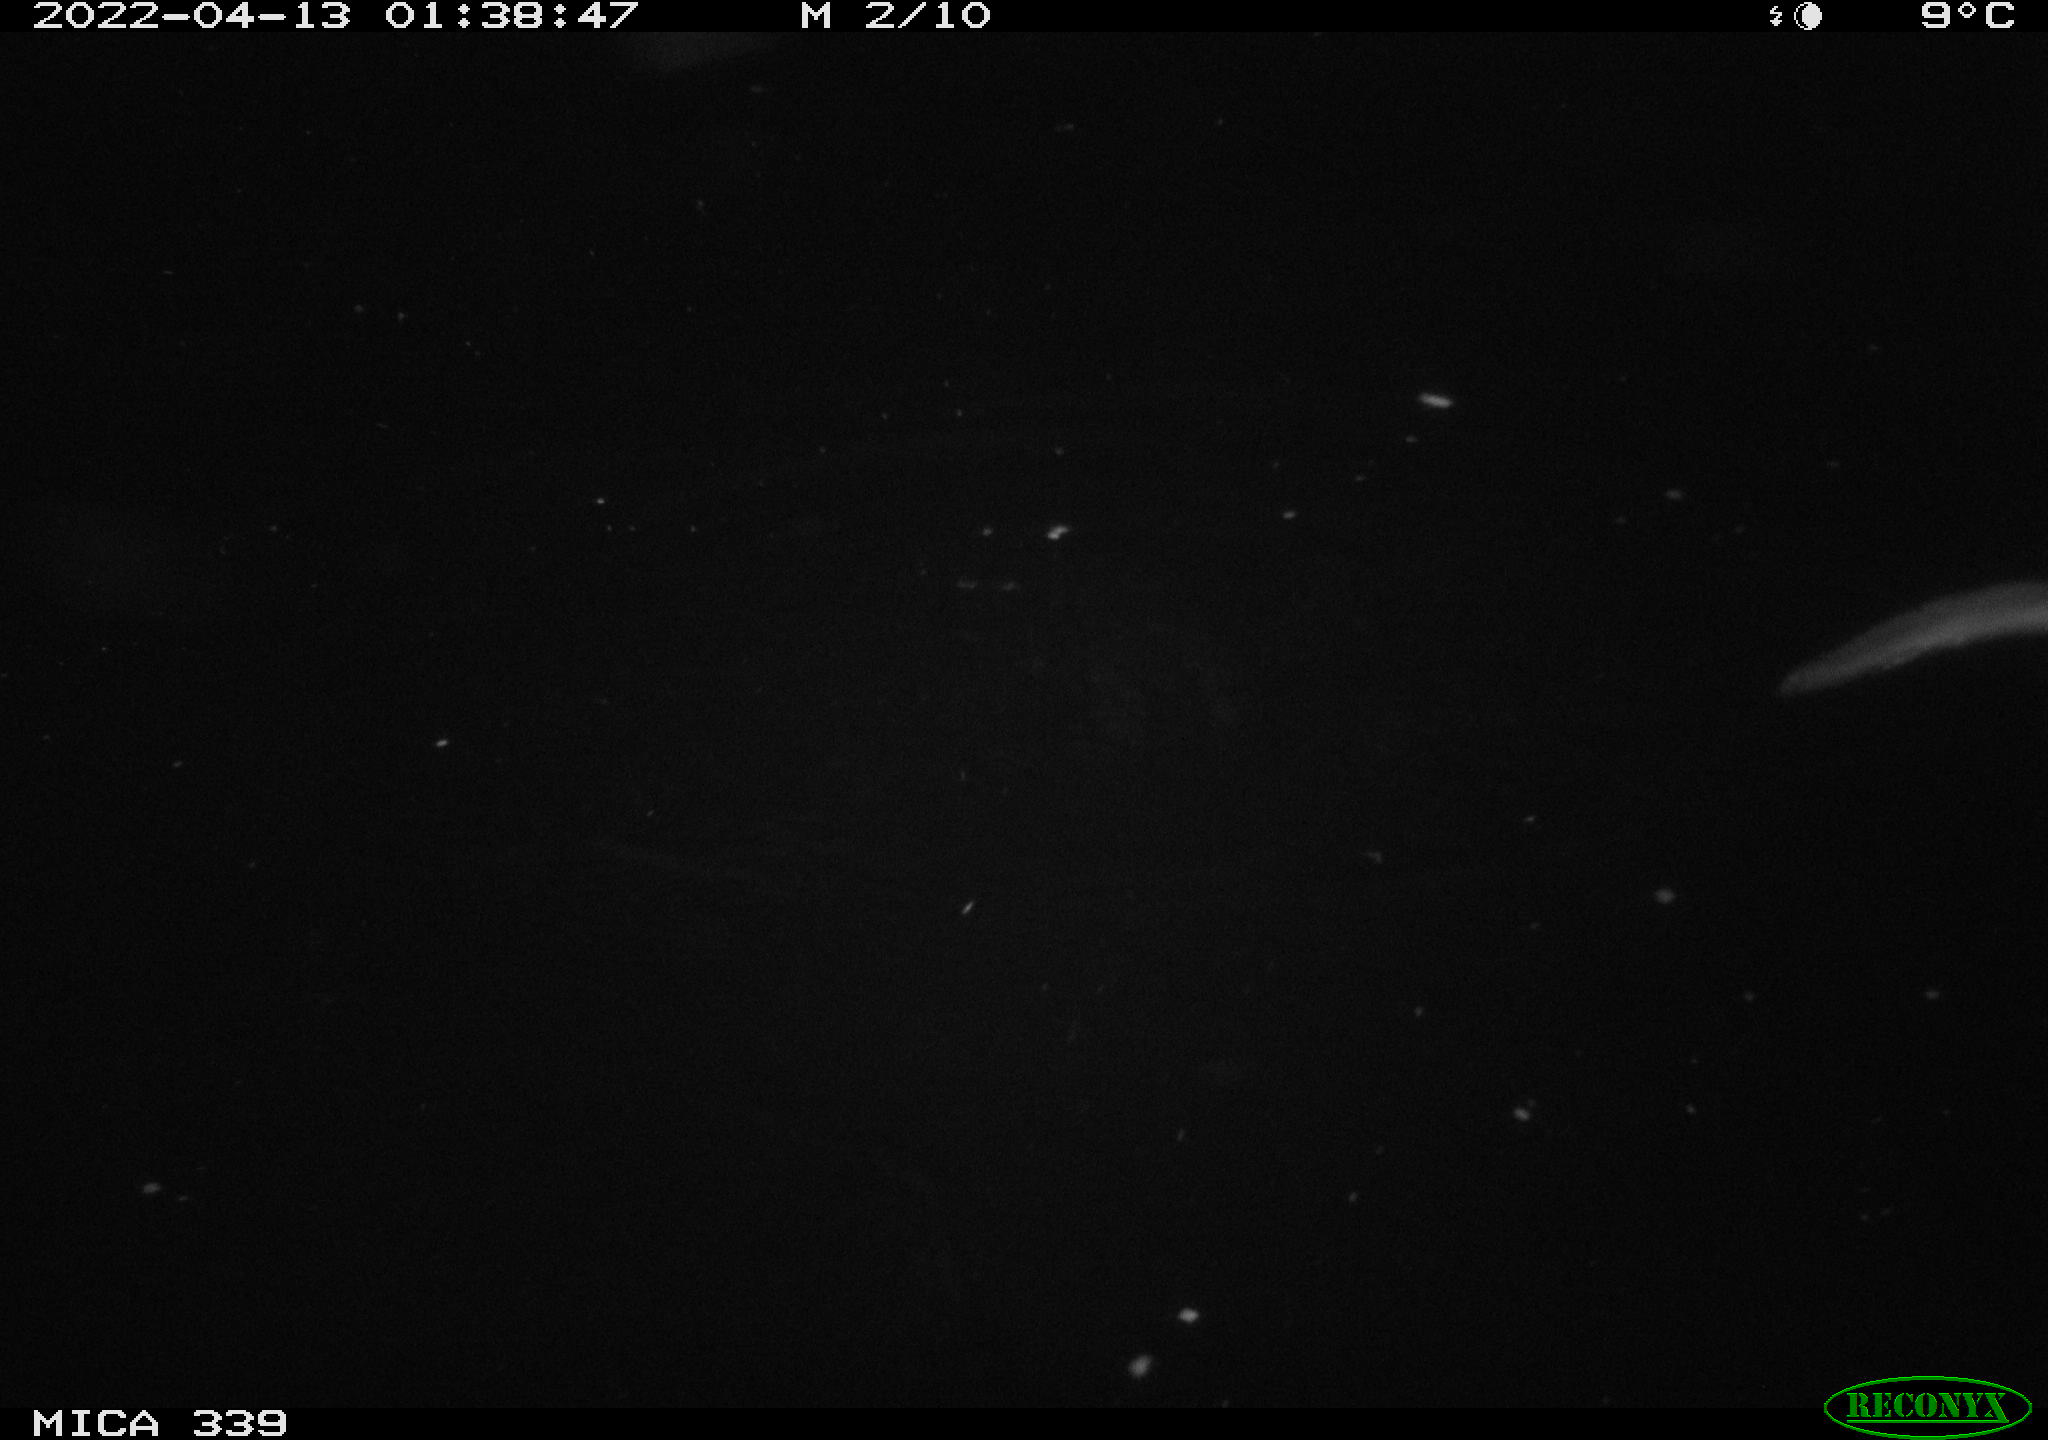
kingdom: Animalia
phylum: Chordata
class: Mammalia
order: Carnivora
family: Mustelidae
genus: Lutra
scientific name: Lutra lutra
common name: European otter
